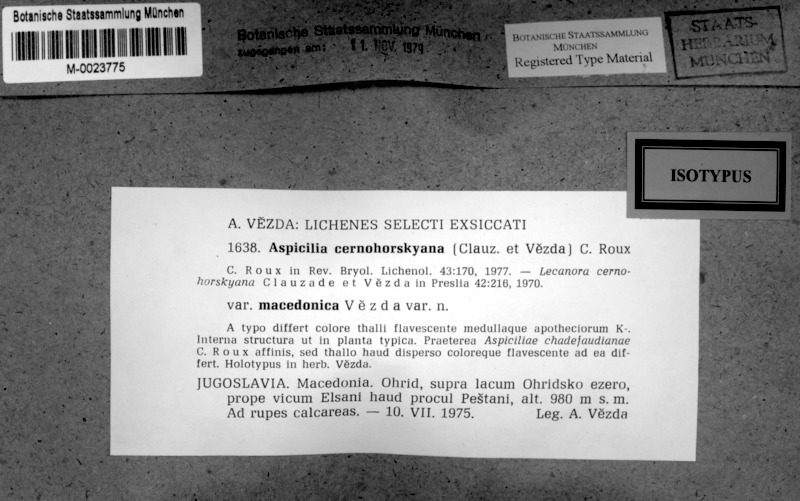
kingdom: Fungi
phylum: Ascomycota
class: Lecanoromycetes
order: Pertusariales
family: Megasporaceae
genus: Lobothallia
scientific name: Lobothallia chadefaudiana
